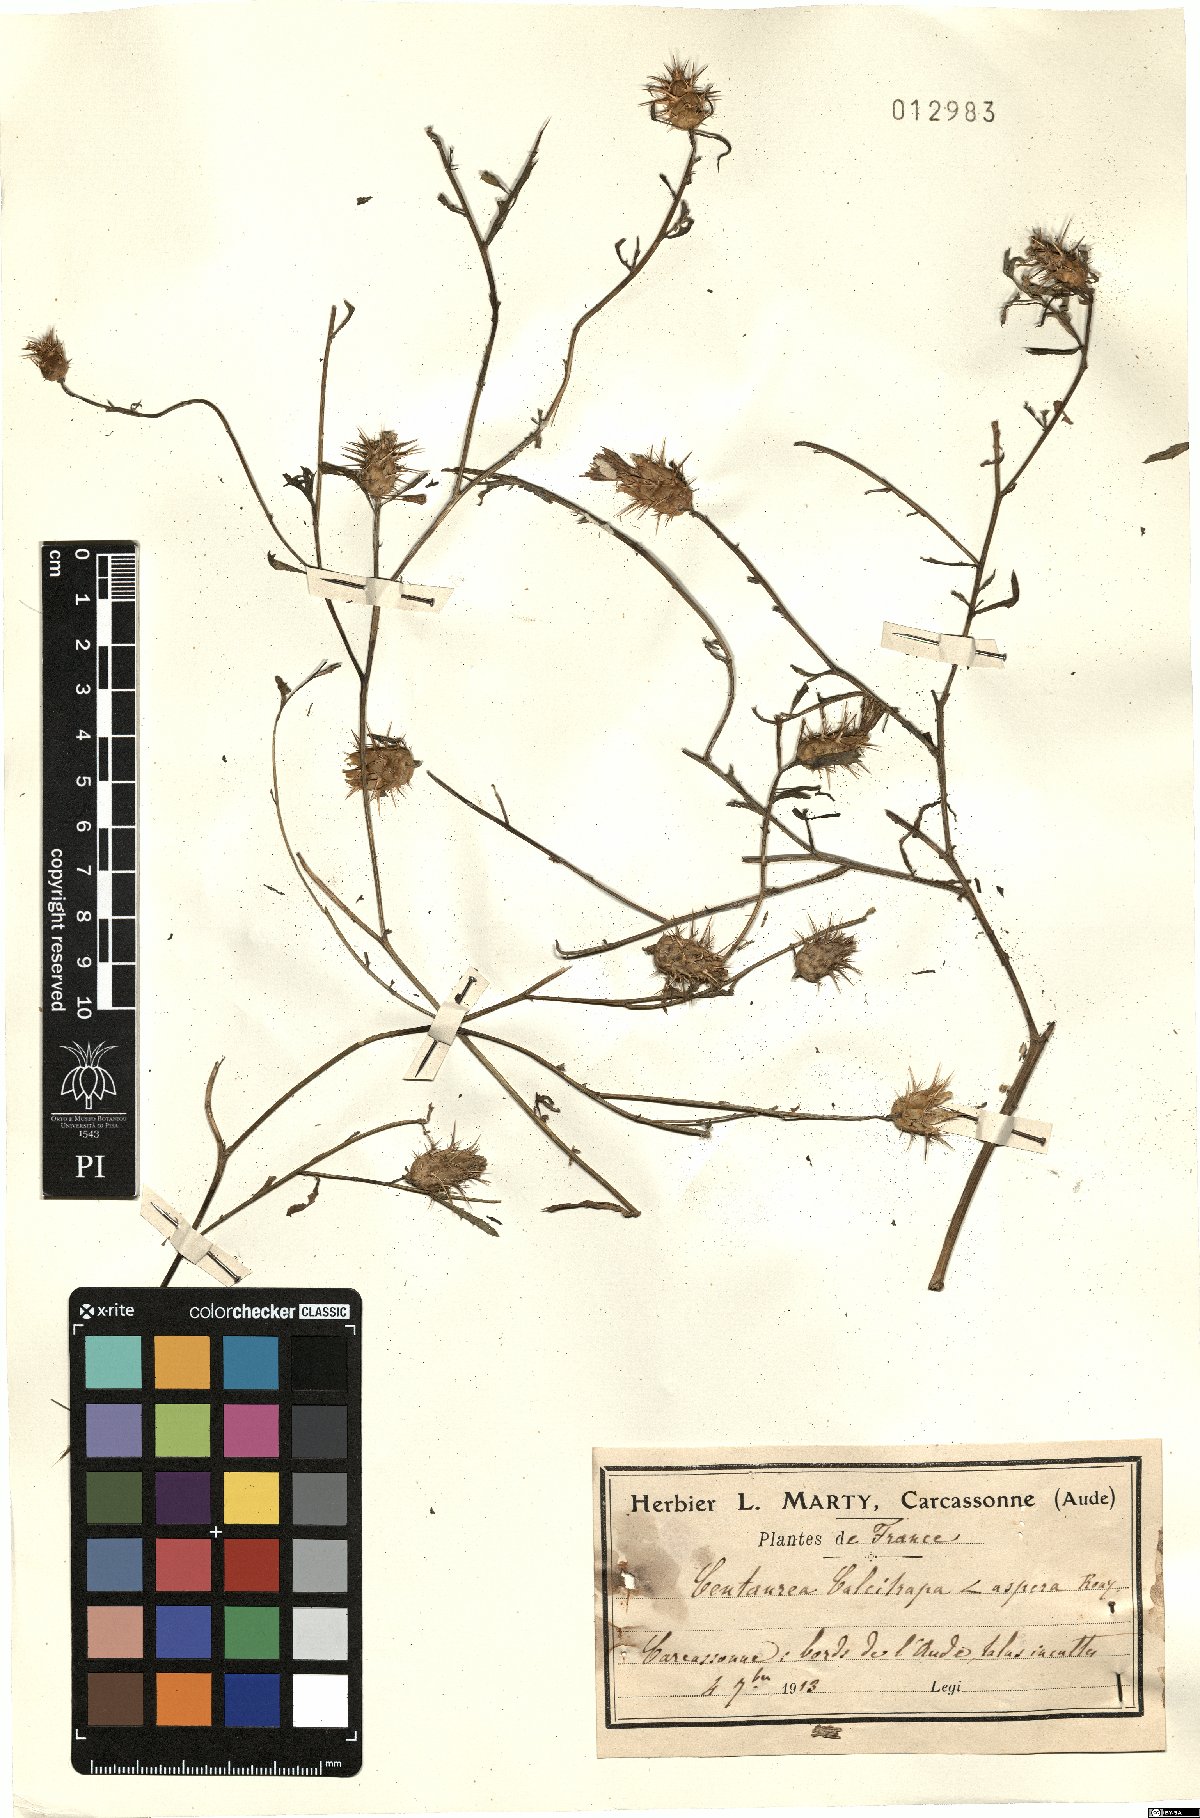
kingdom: Plantae
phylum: Tracheophyta
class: Magnoliopsida
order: Asterales
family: Asteraceae
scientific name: Asteraceae
